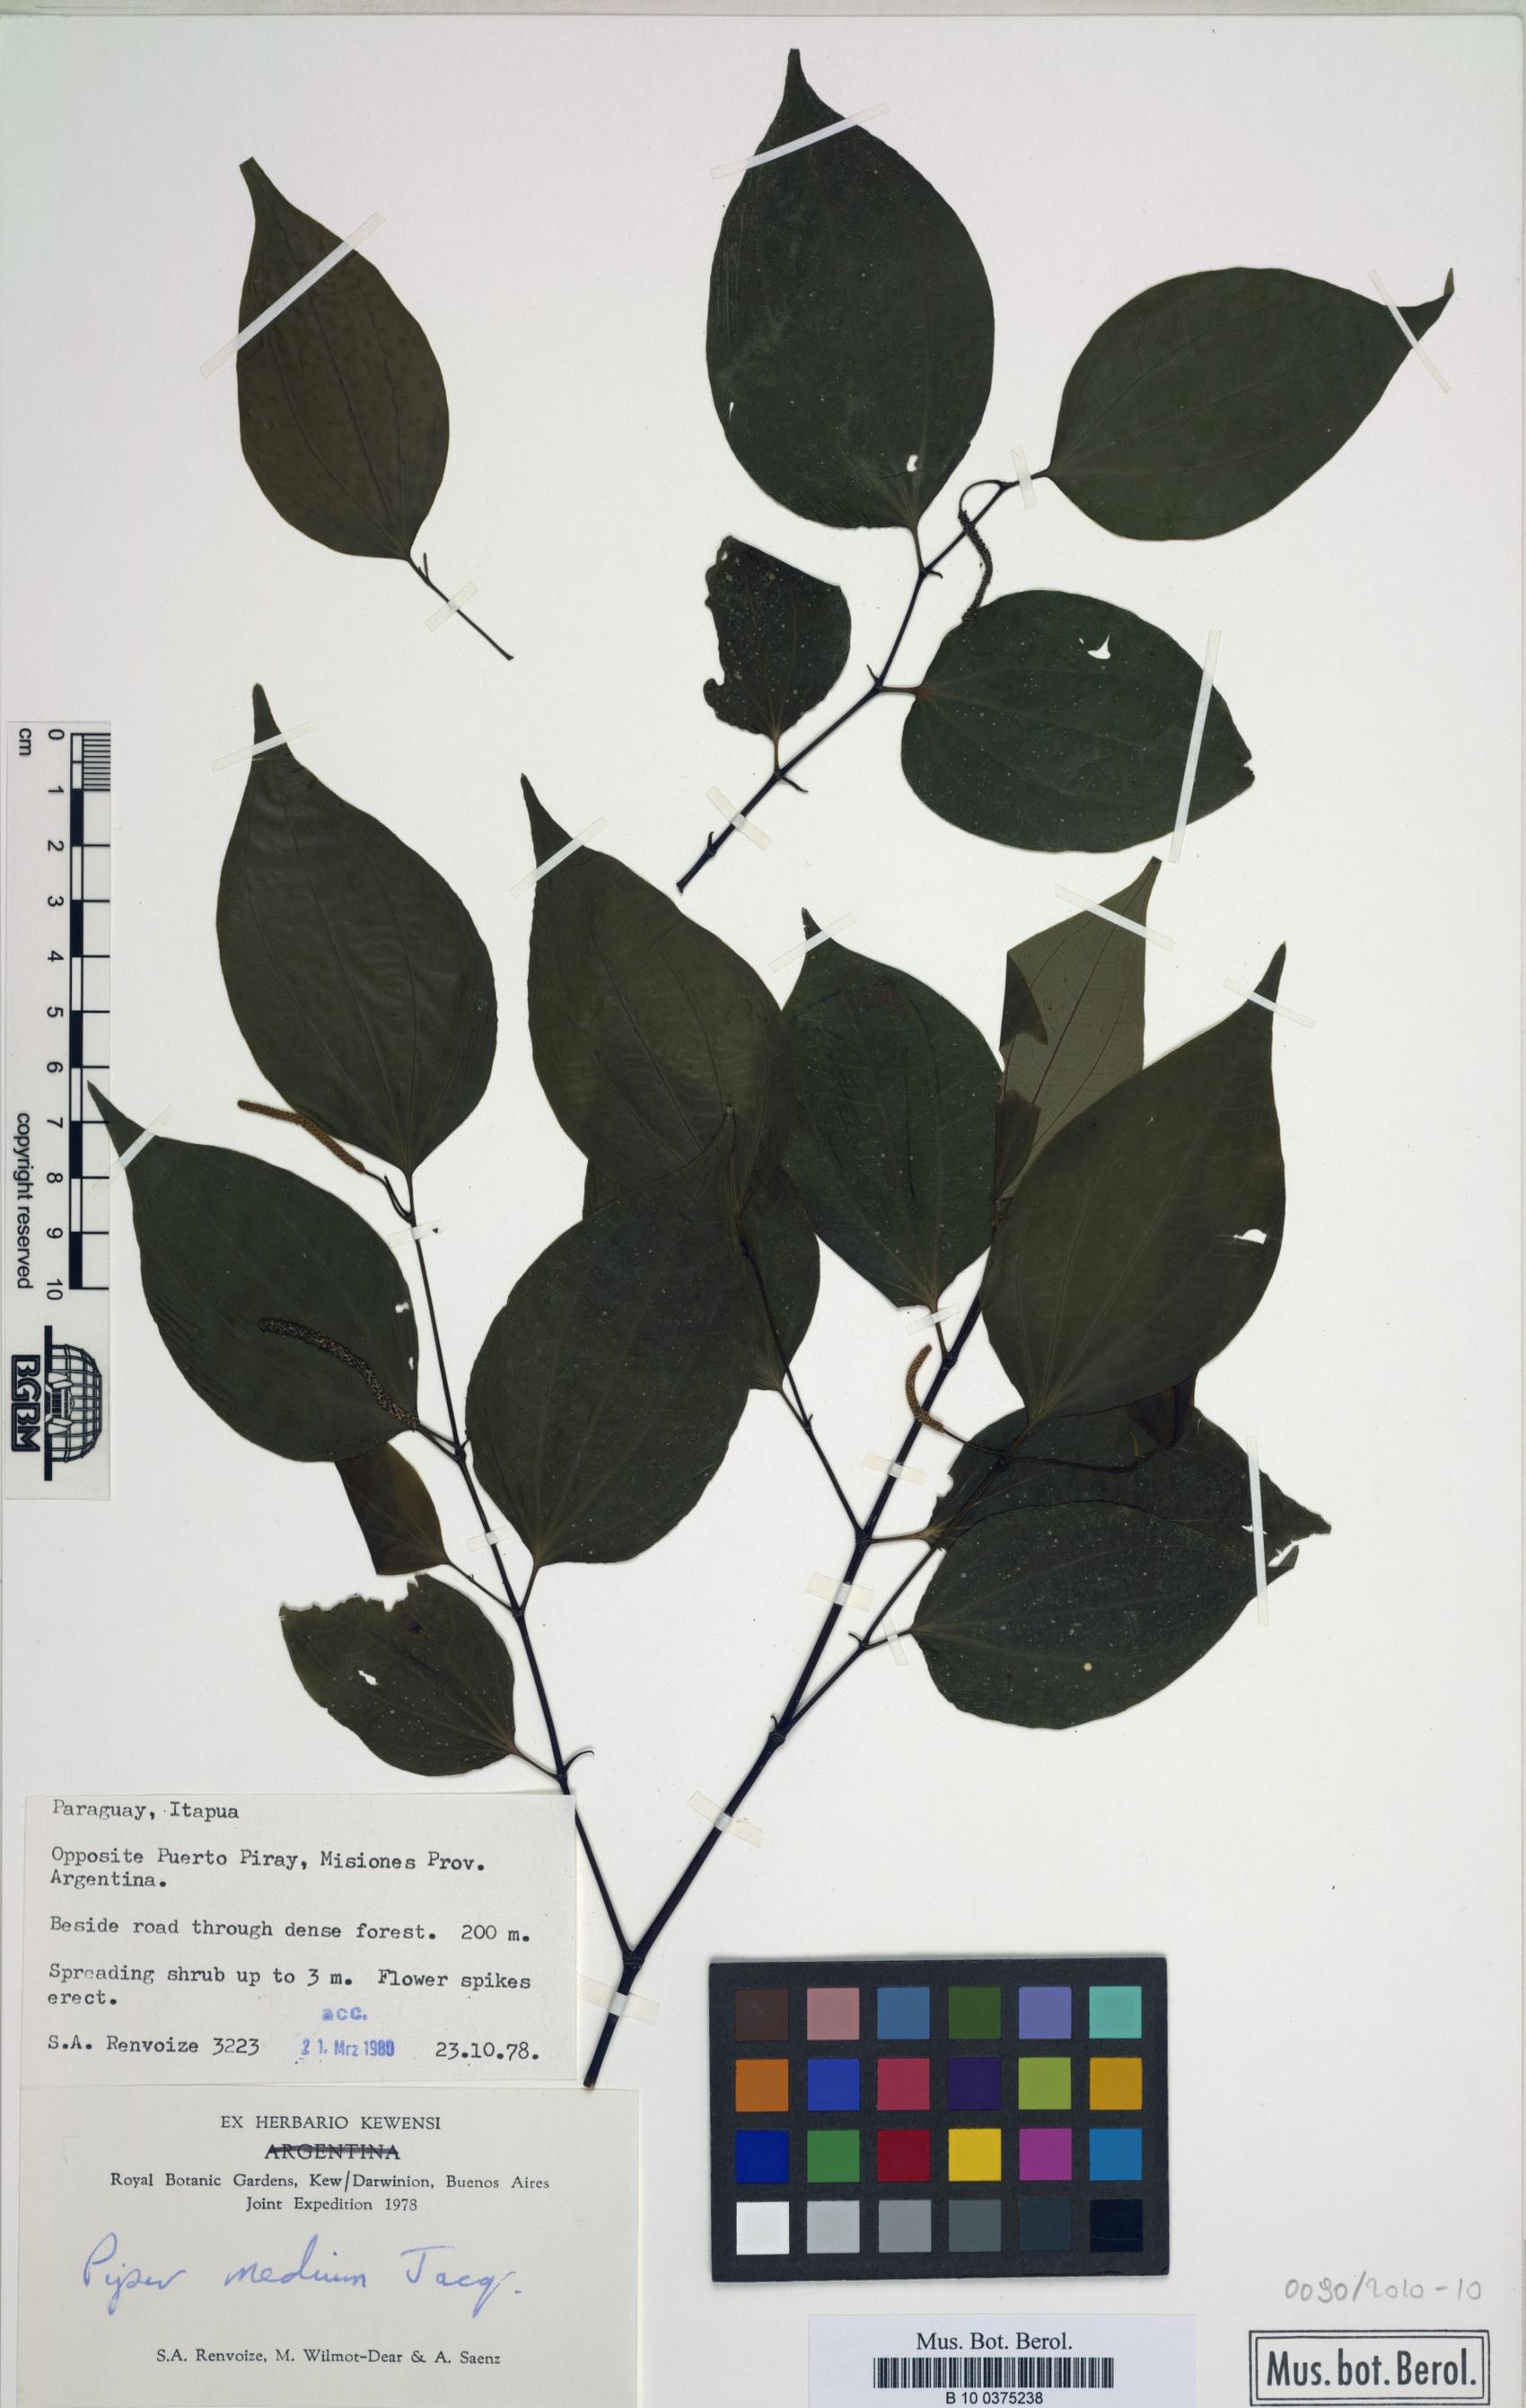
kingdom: Plantae
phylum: Tracheophyta
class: Magnoliopsida
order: Piperales
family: Piperaceae
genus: Piper
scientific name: Piper amalago
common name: Pepper-elder
